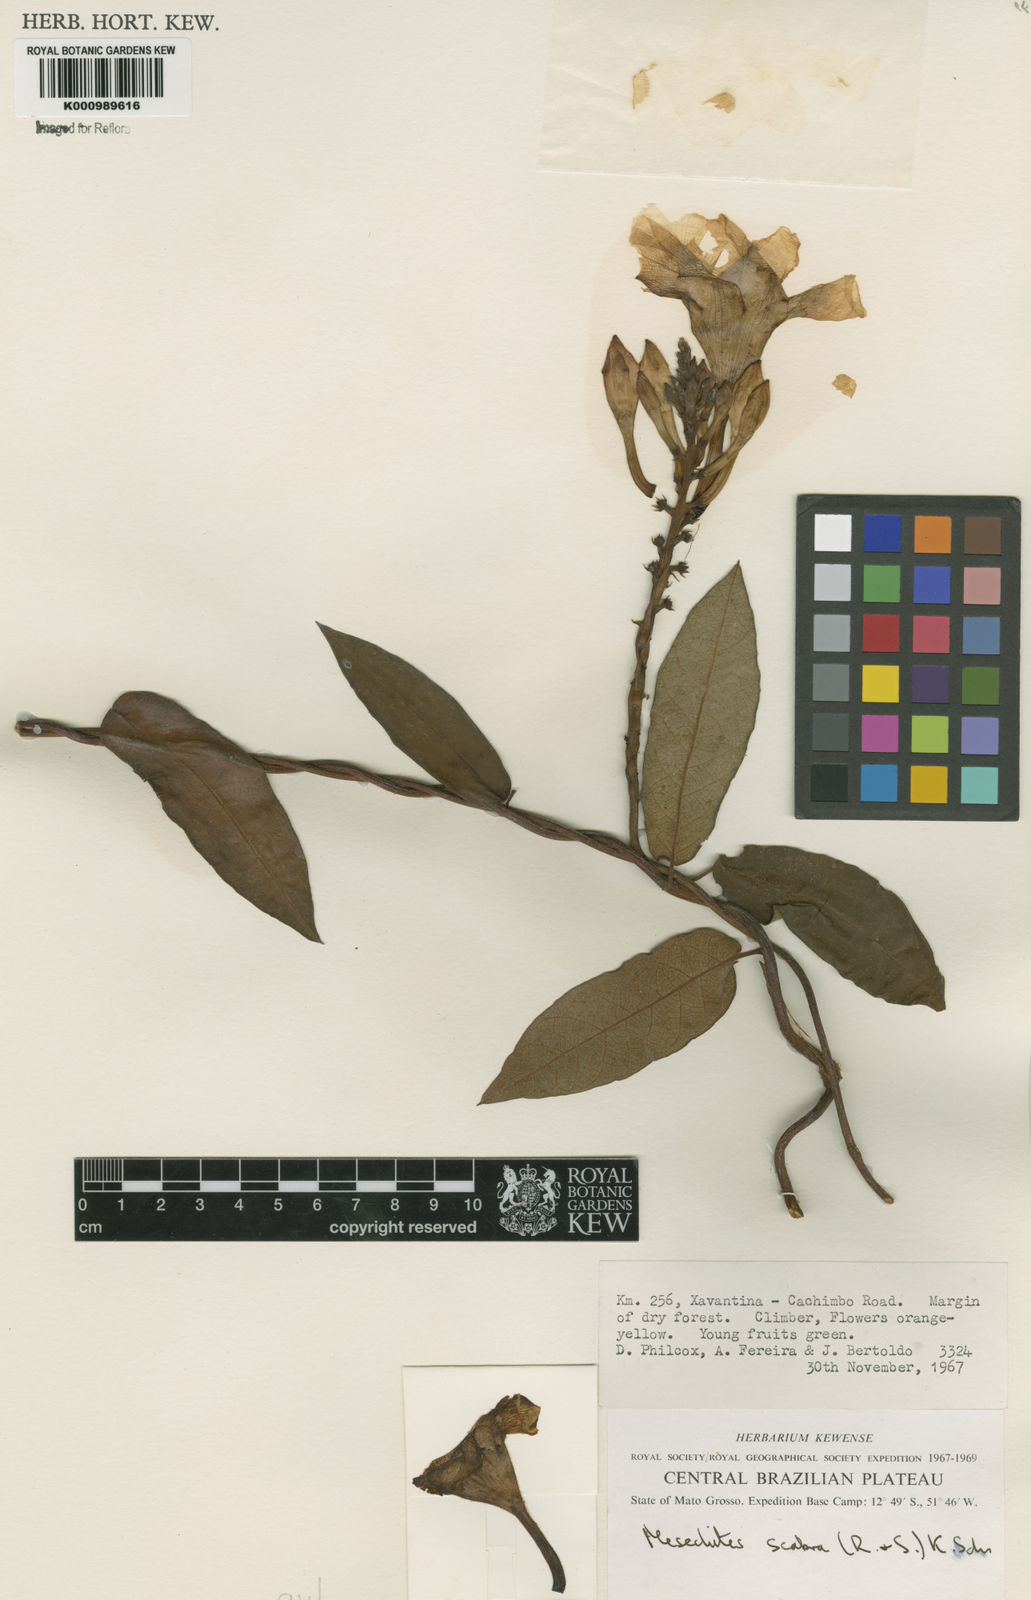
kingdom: Plantae
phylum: Tracheophyta
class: Magnoliopsida
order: Gentianales
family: Apocynaceae
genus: Mandevilla
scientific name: Mandevilla scabra
